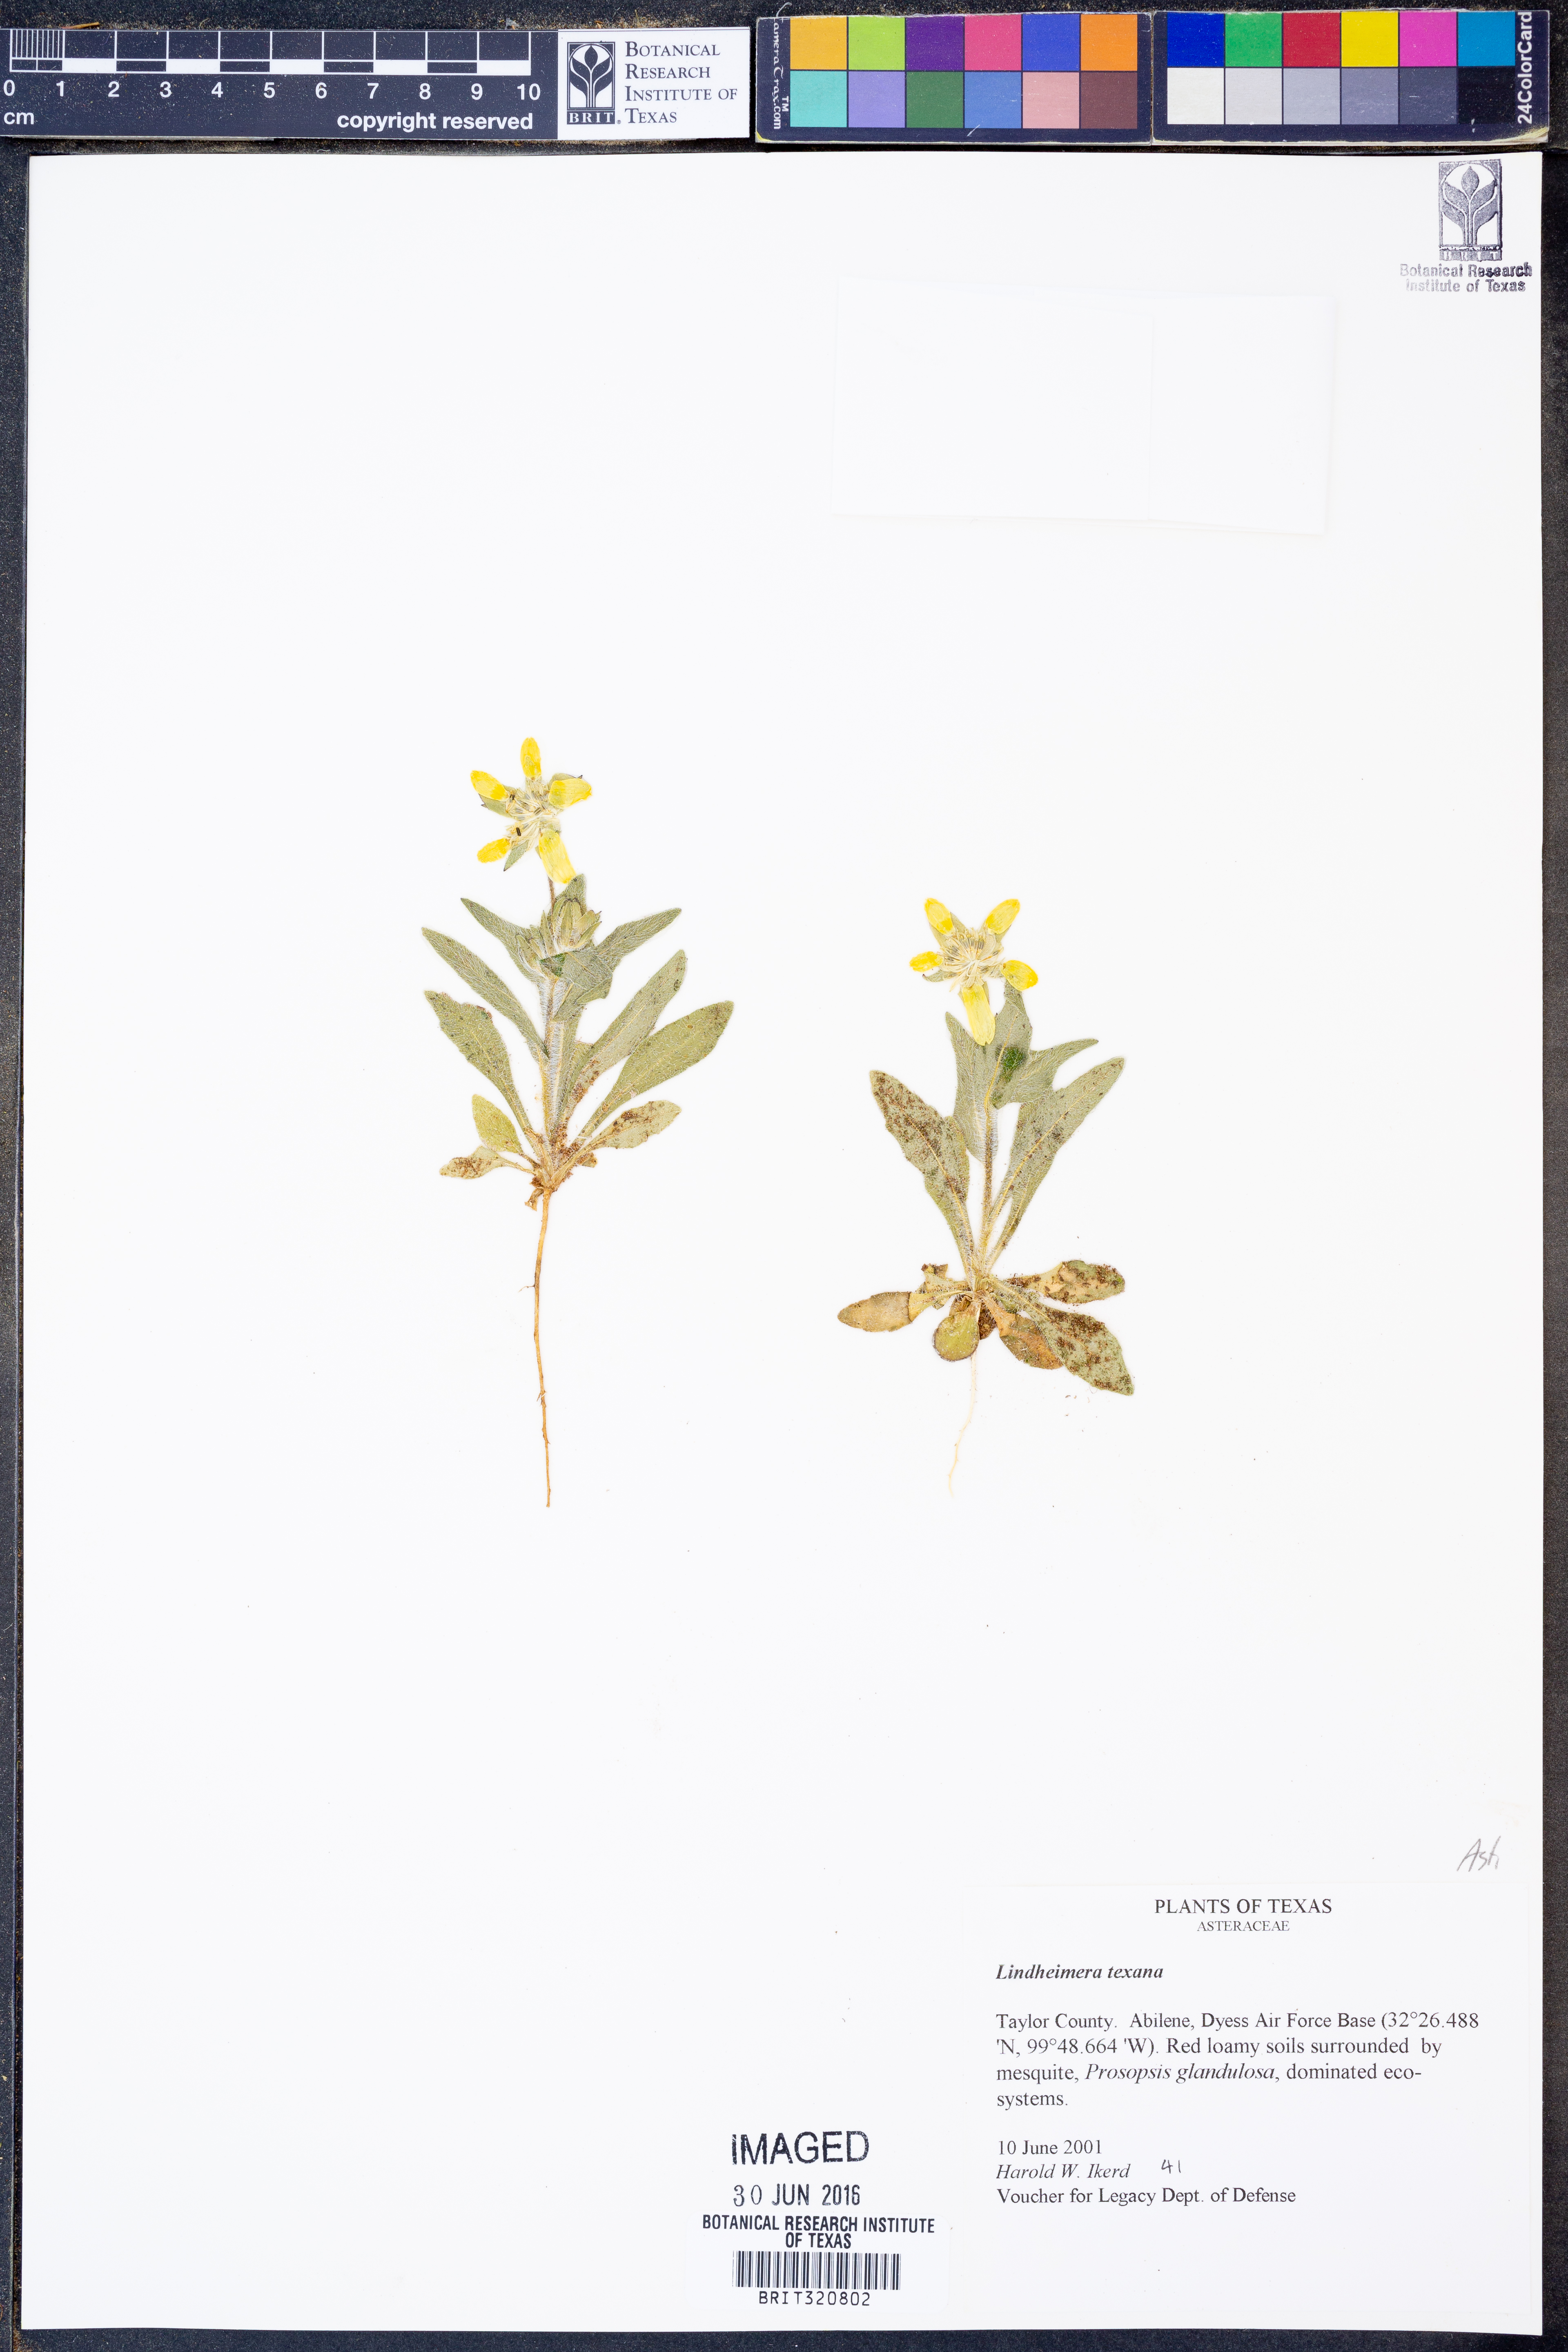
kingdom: Plantae
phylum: Tracheophyta
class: Magnoliopsida
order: Asterales
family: Asteraceae
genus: Lindheimera
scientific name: Lindheimera texana
